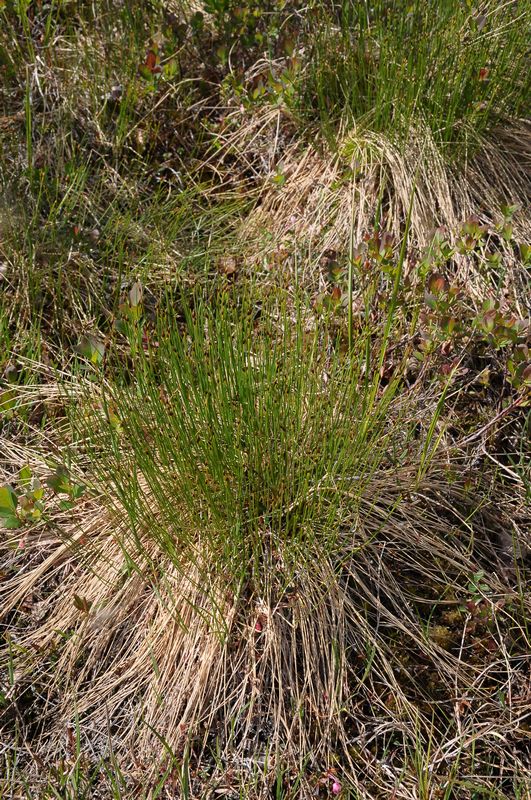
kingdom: Plantae
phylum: Tracheophyta
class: Liliopsida
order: Poales
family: Cyperaceae
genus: Trichophorum
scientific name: Trichophorum cespitosum
